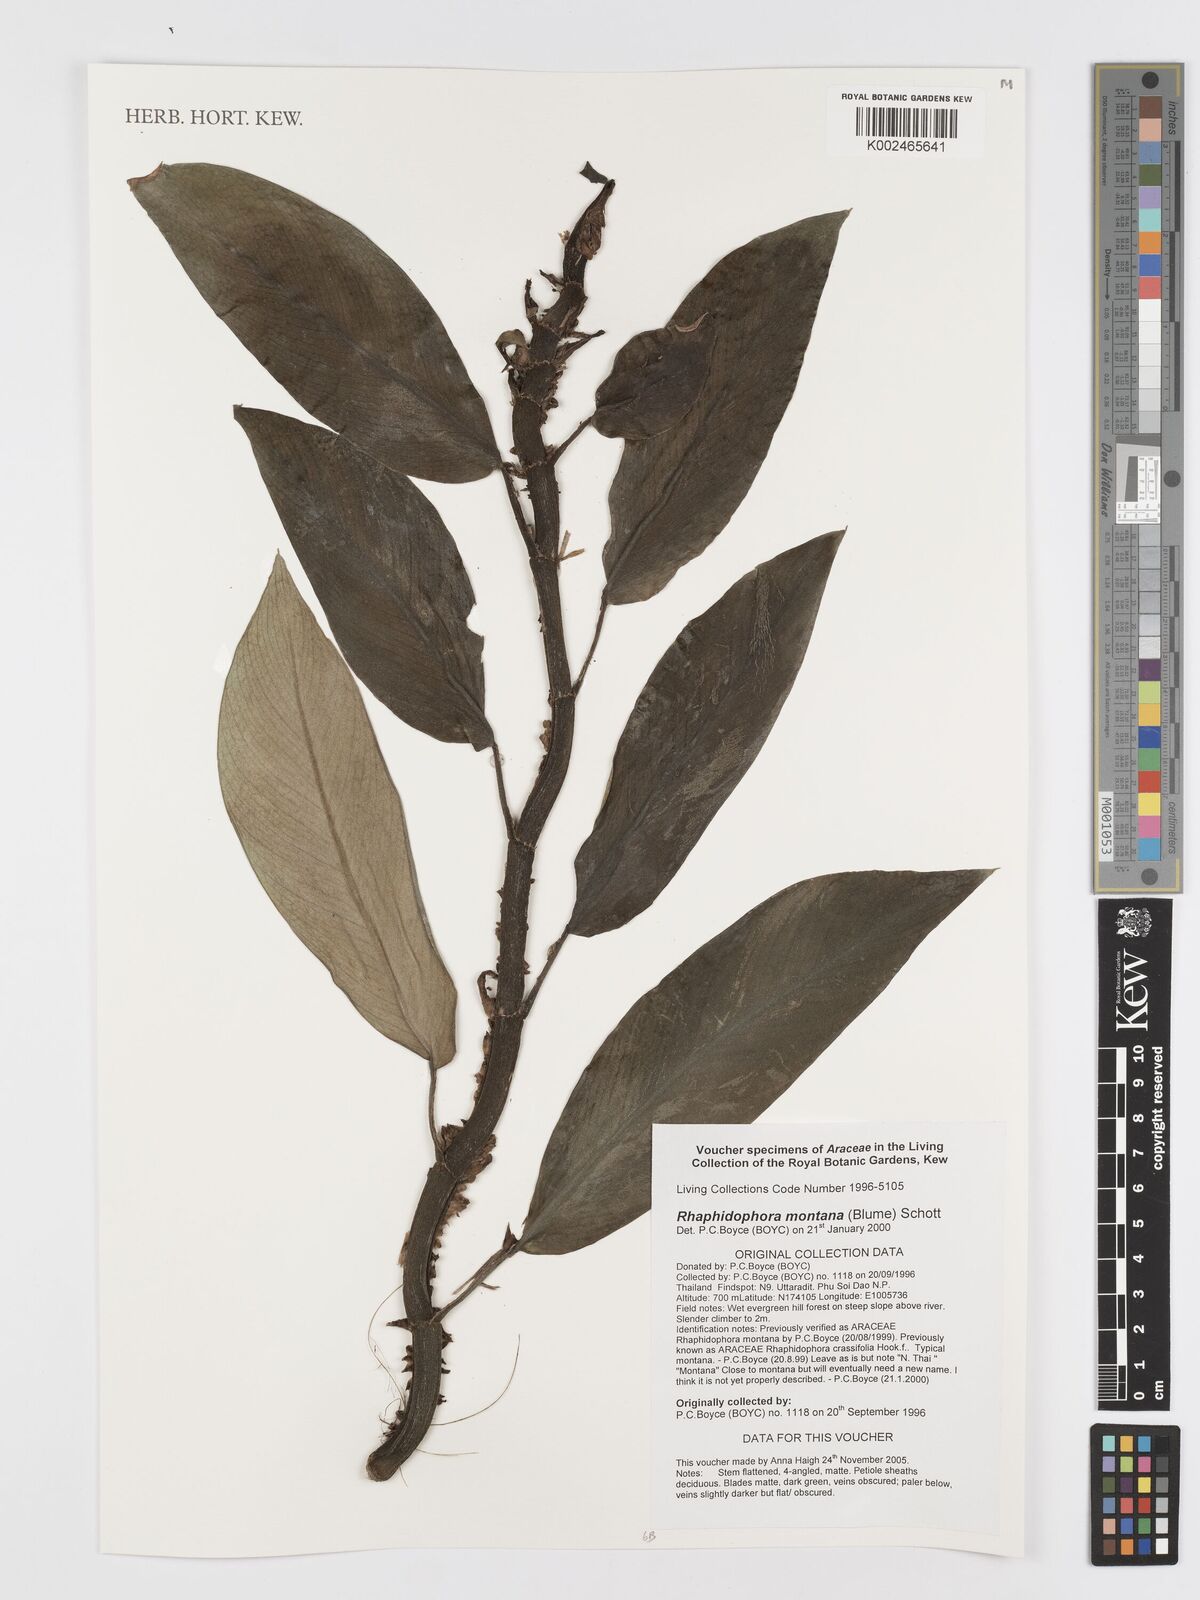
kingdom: Plantae
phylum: Tracheophyta
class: Liliopsida
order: Alismatales
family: Araceae
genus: Rhaphidophora
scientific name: Rhaphidophora montana
